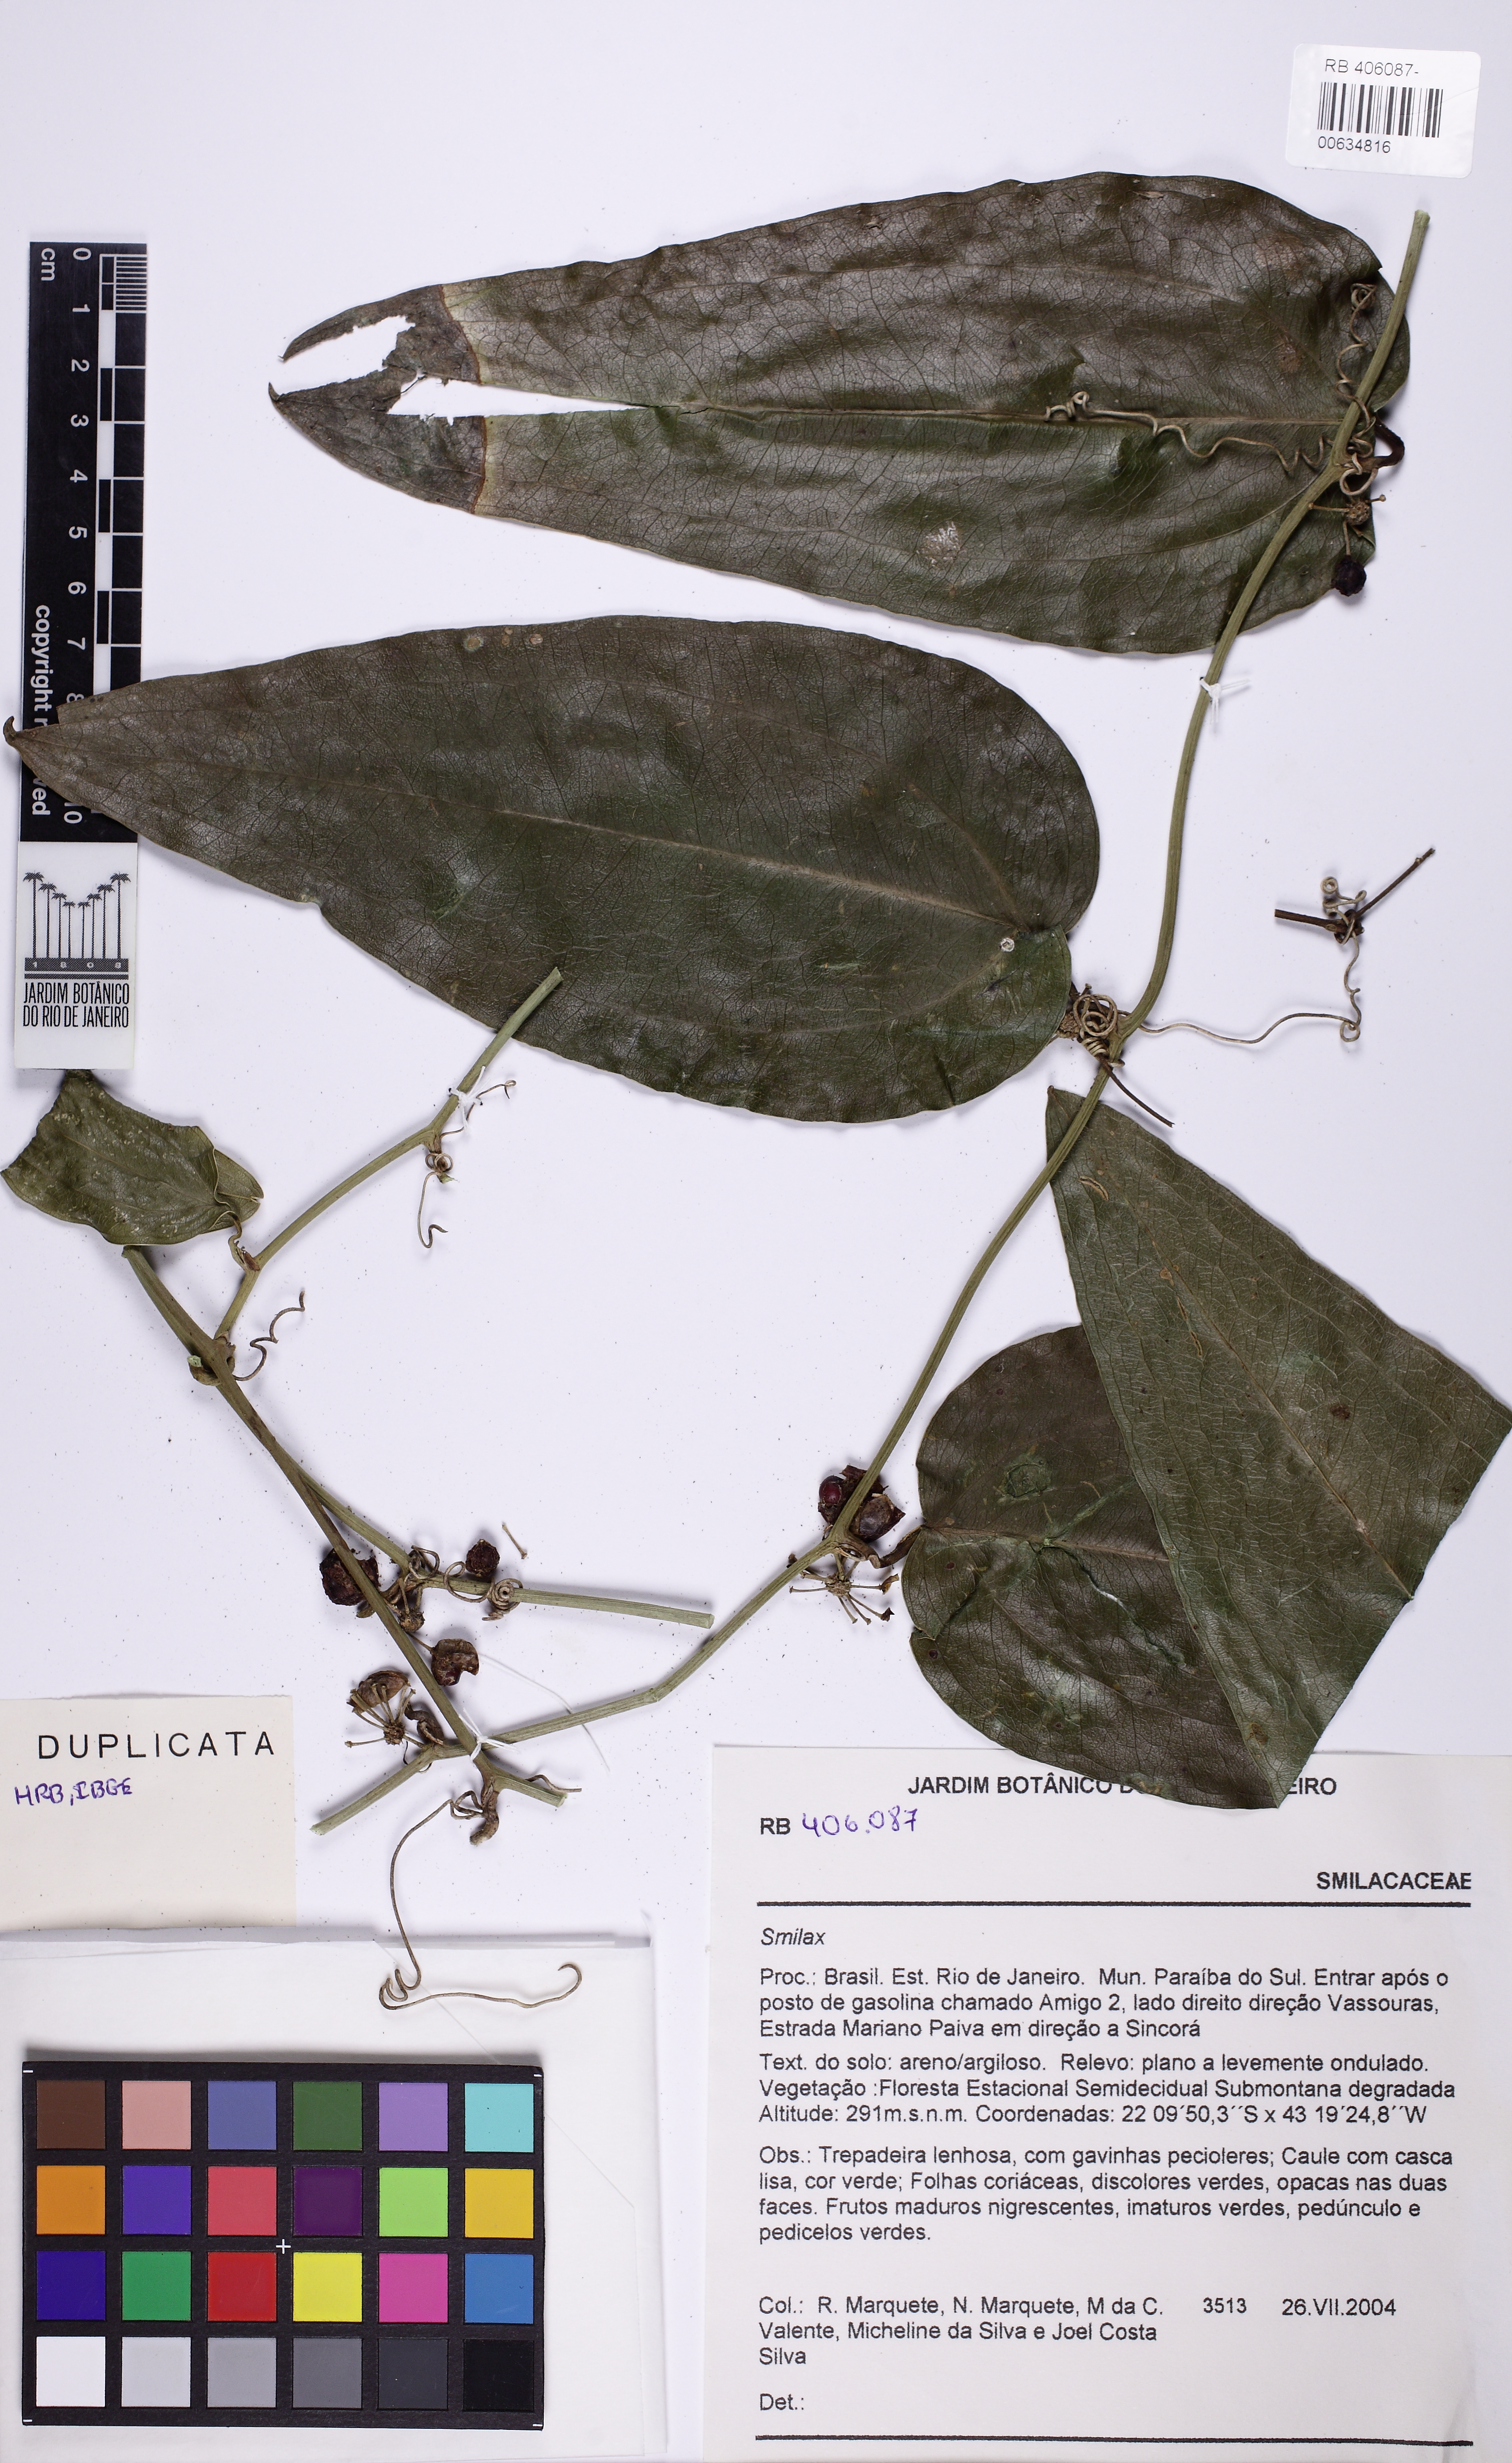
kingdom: Plantae
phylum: Tracheophyta
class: Liliopsida
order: Liliales
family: Smilacaceae
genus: Smilax
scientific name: Smilax
